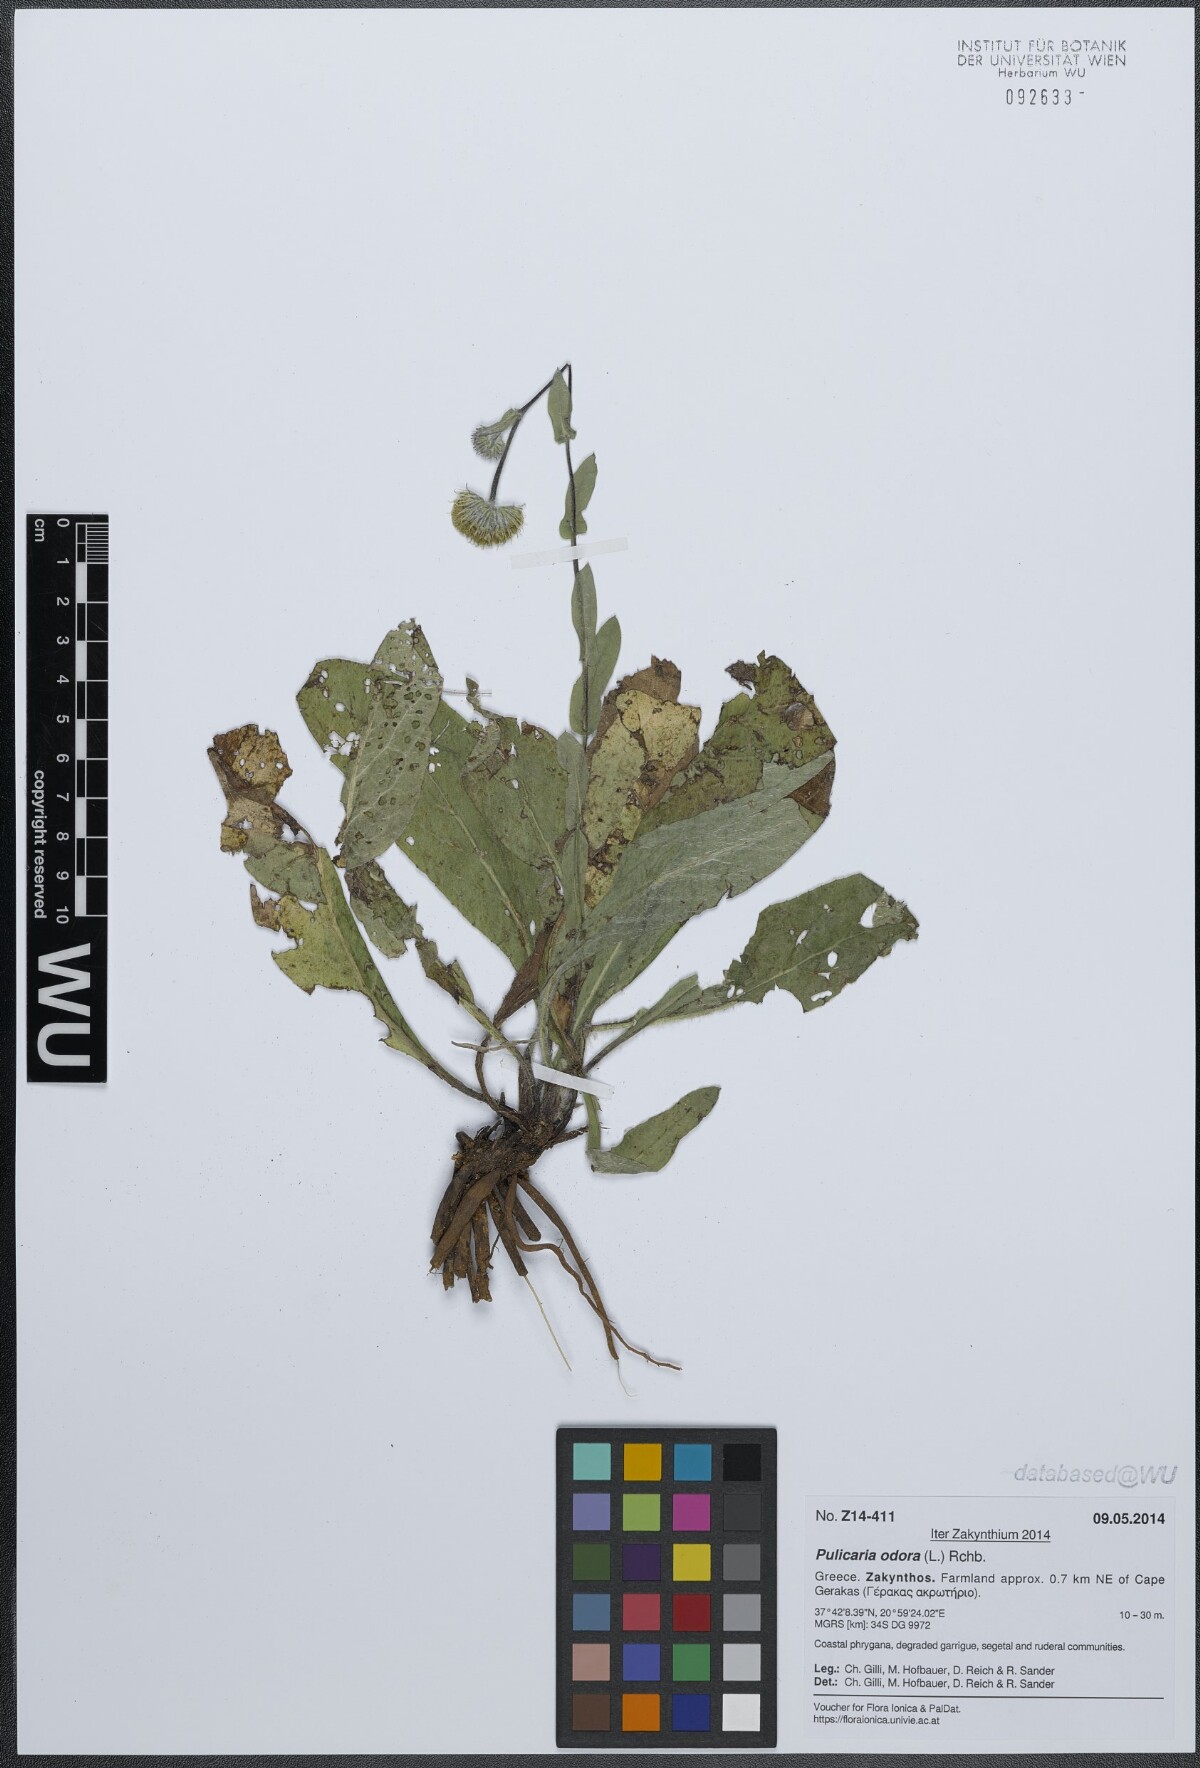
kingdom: Plantae
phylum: Tracheophyta
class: Magnoliopsida
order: Asterales
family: Asteraceae
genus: Pulicaria
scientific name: Pulicaria odora
